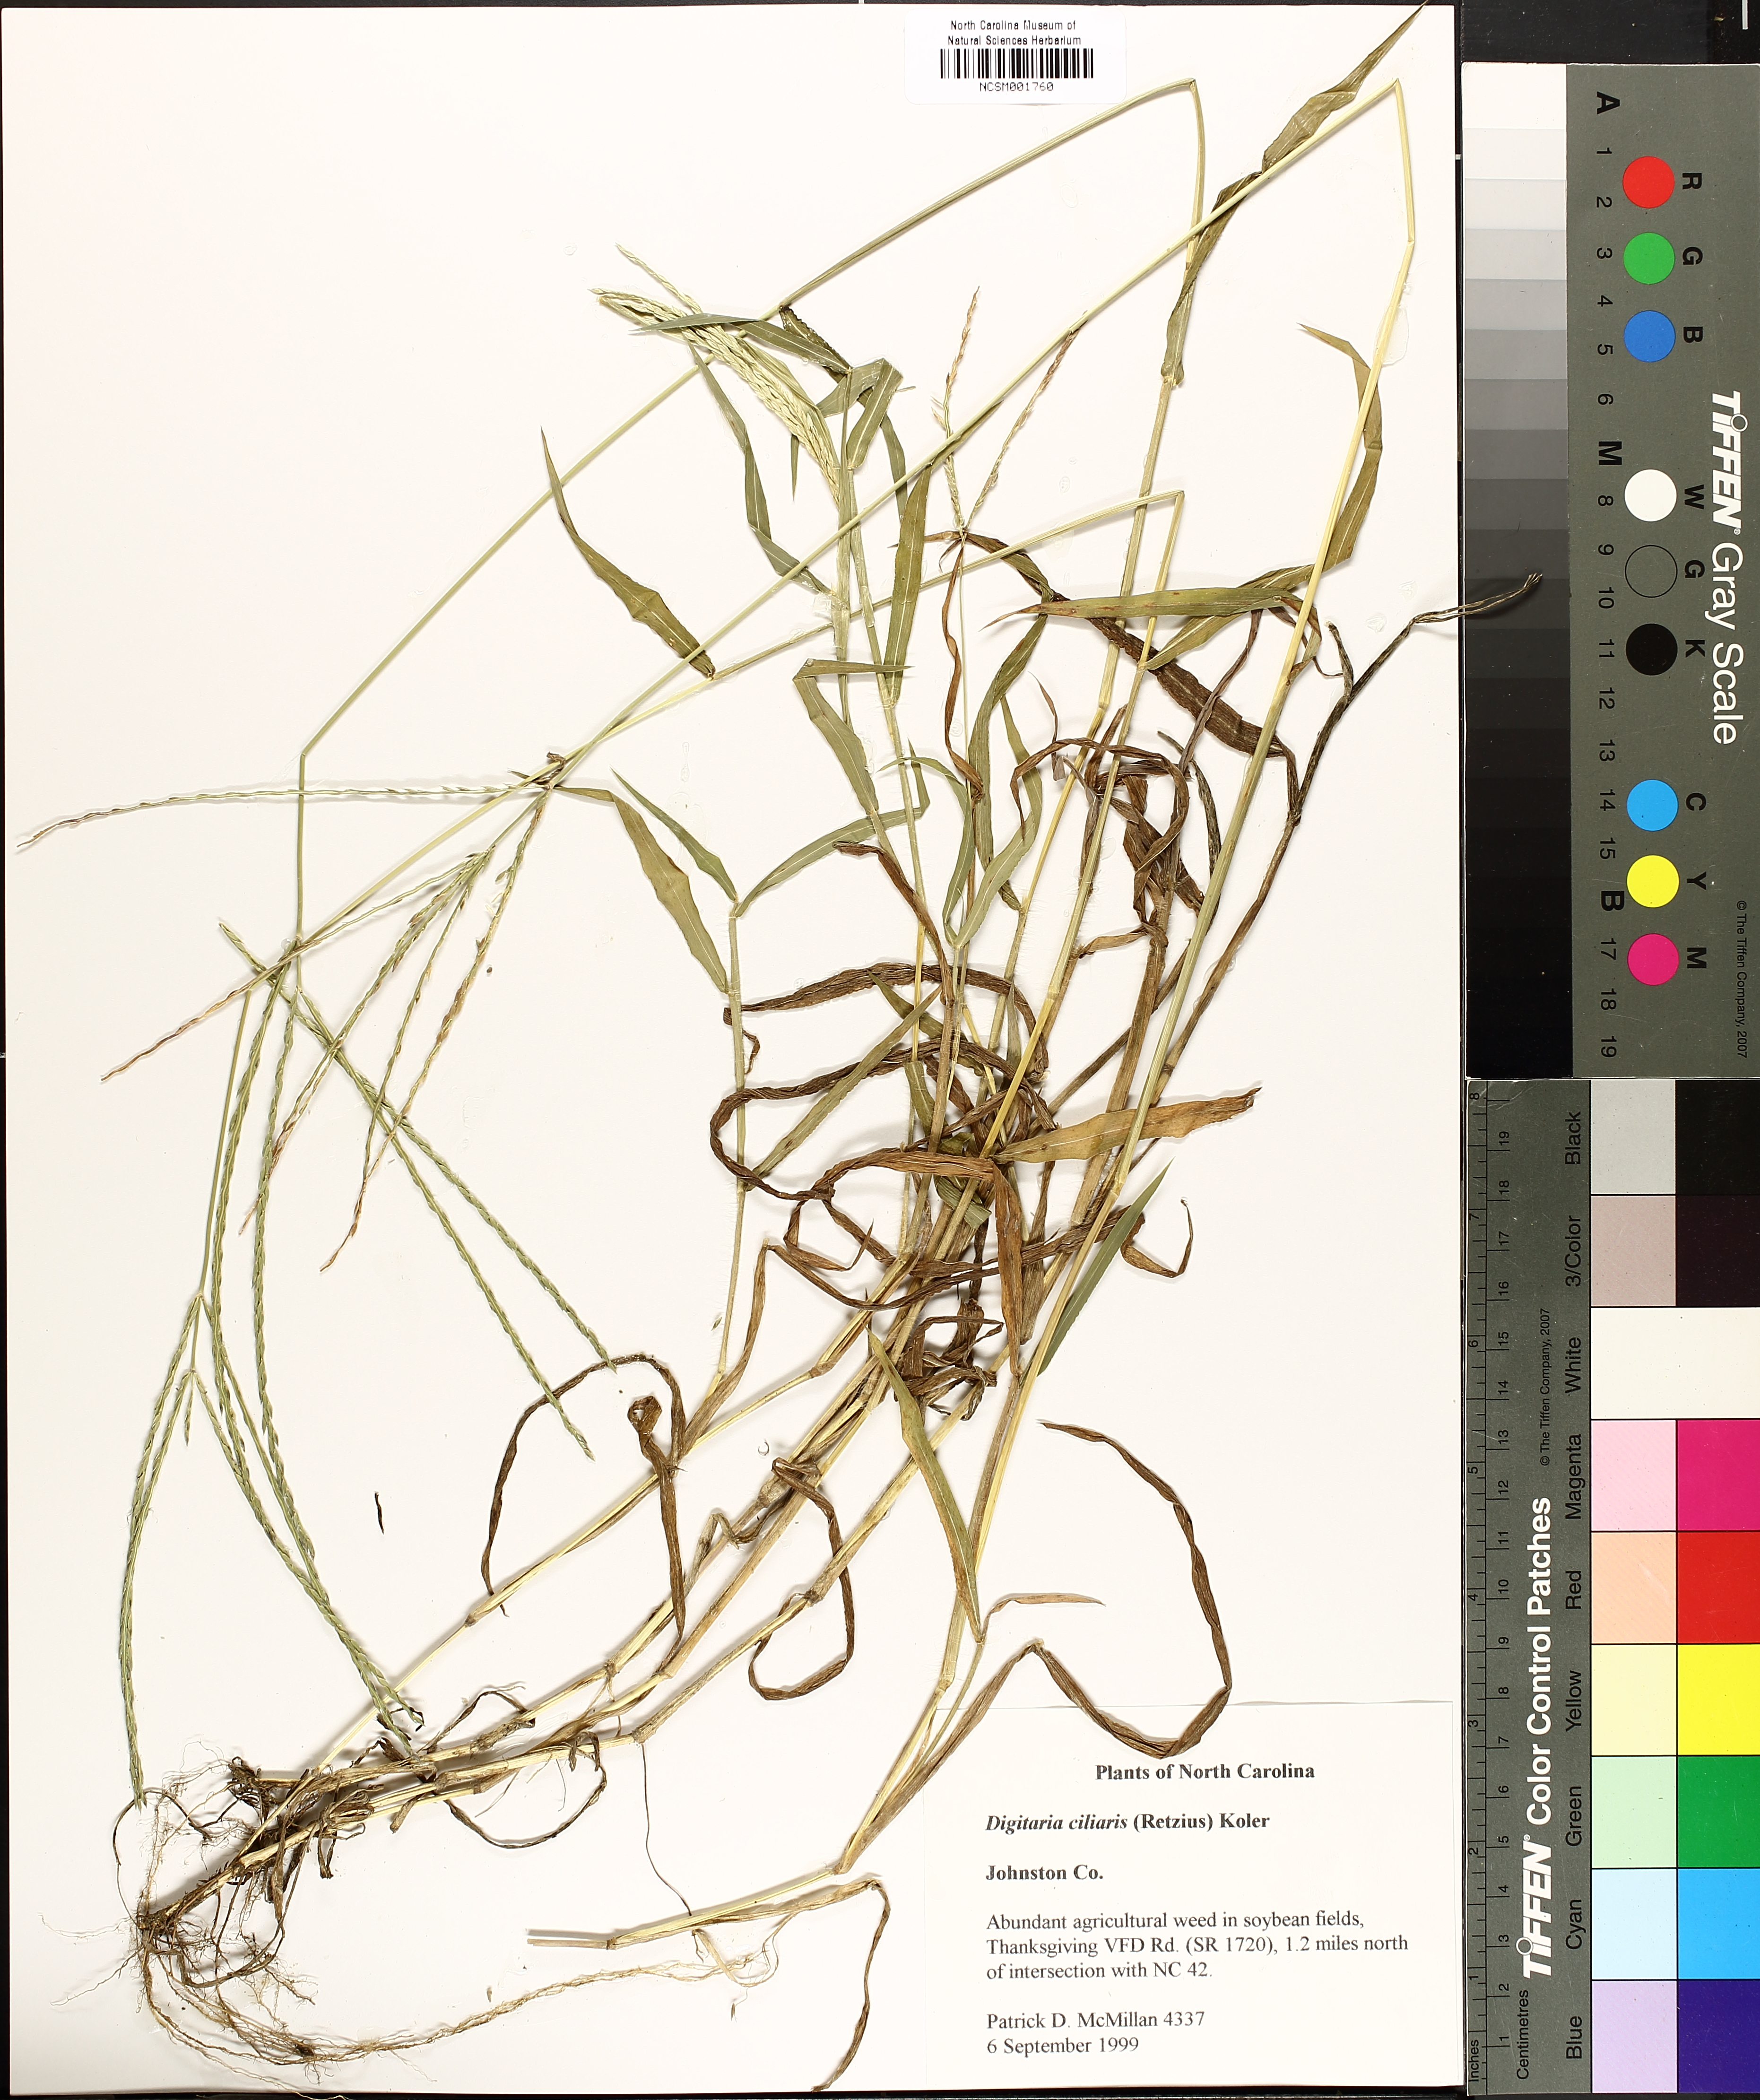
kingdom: Plantae
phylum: Tracheophyta
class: Liliopsida
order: Poales
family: Poaceae
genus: Digitaria
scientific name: Digitaria ciliaris
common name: Tropical finger-grass
